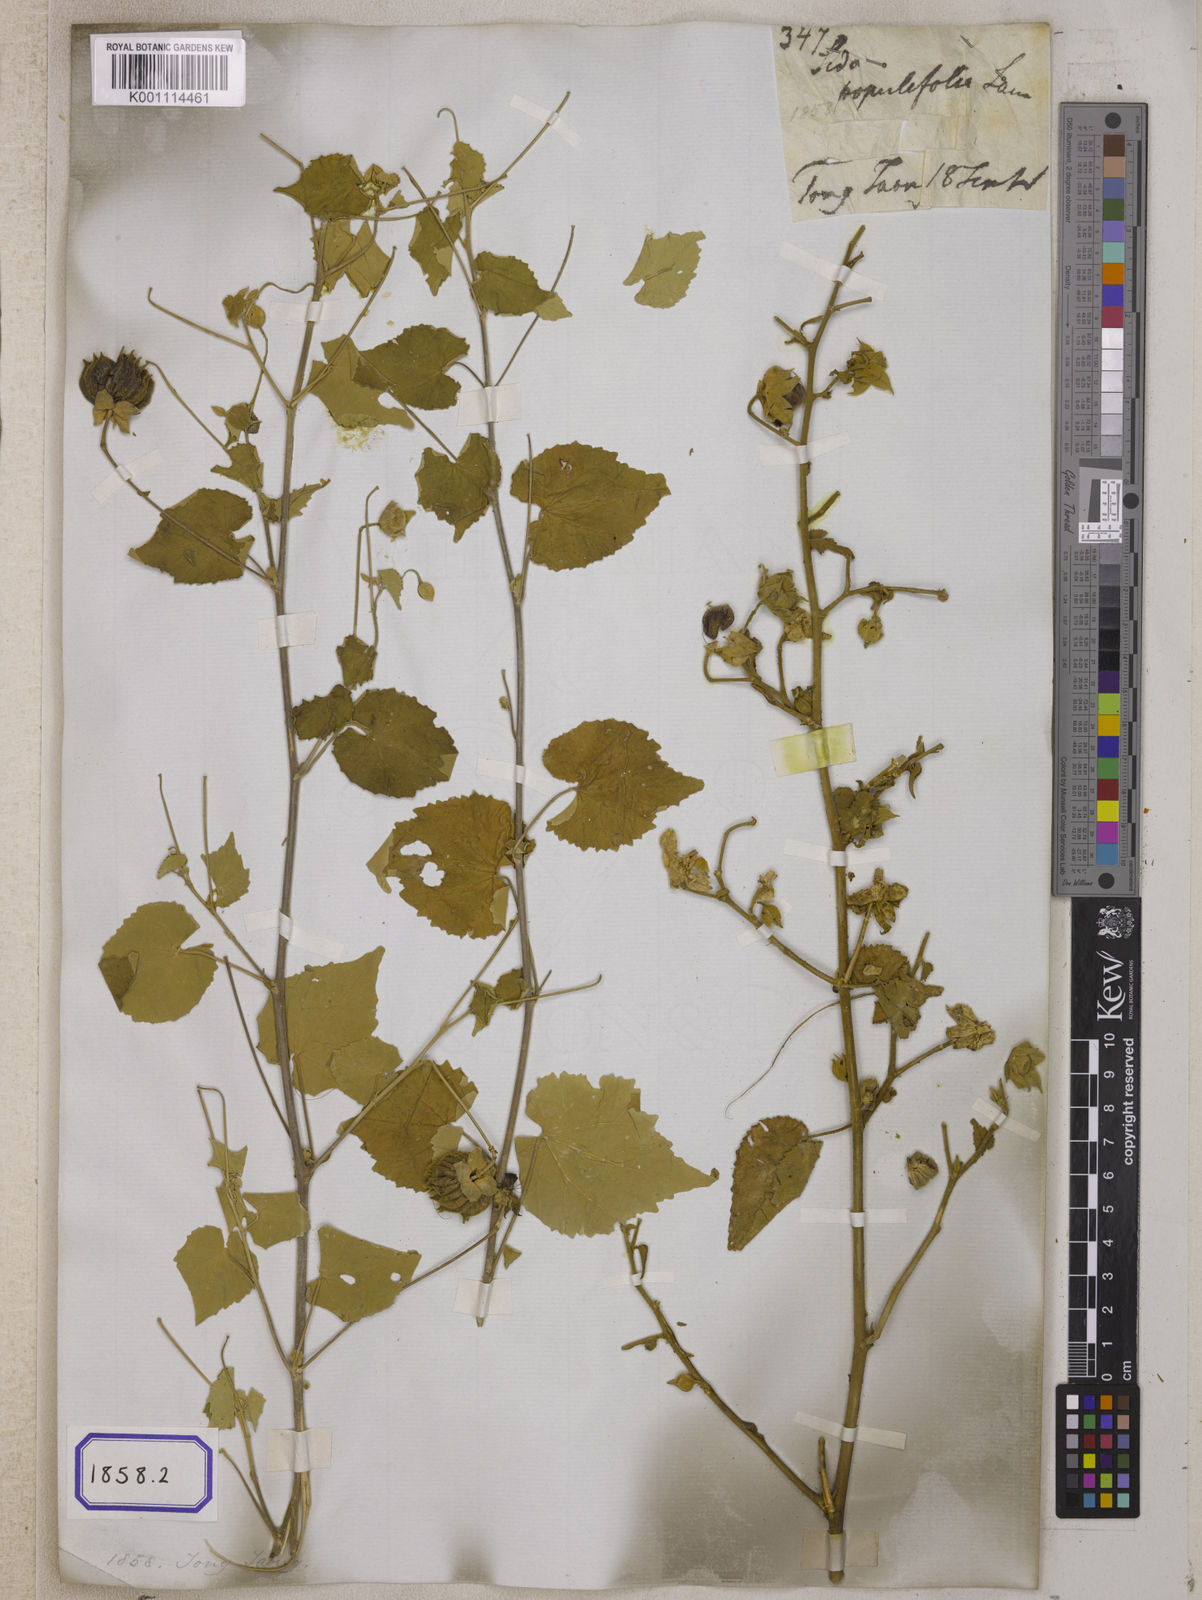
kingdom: Plantae
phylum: Tracheophyta
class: Magnoliopsida
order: Malvales
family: Malvaceae
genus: Abutilon
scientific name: Abutilon indicum
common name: Indian abutilon
